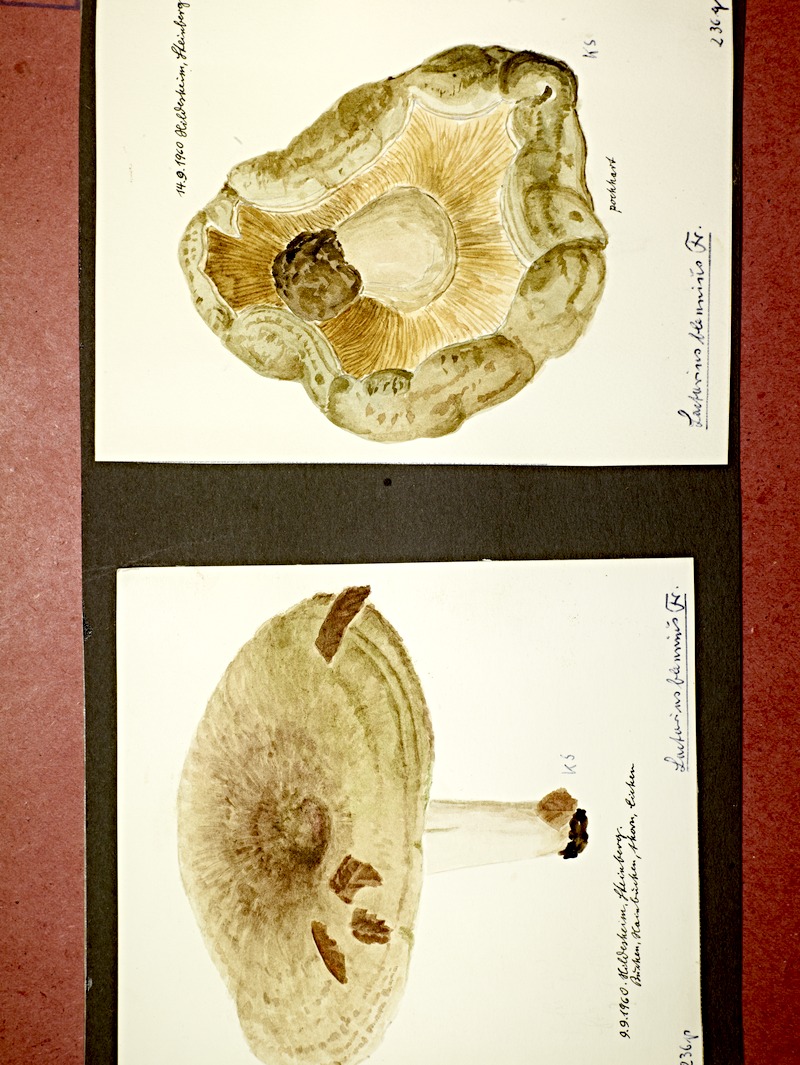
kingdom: Fungi
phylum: Basidiomycota
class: Agaricomycetes
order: Russulales
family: Russulaceae
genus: Lactarius
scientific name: Lactarius blennius
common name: Beech milkcap
